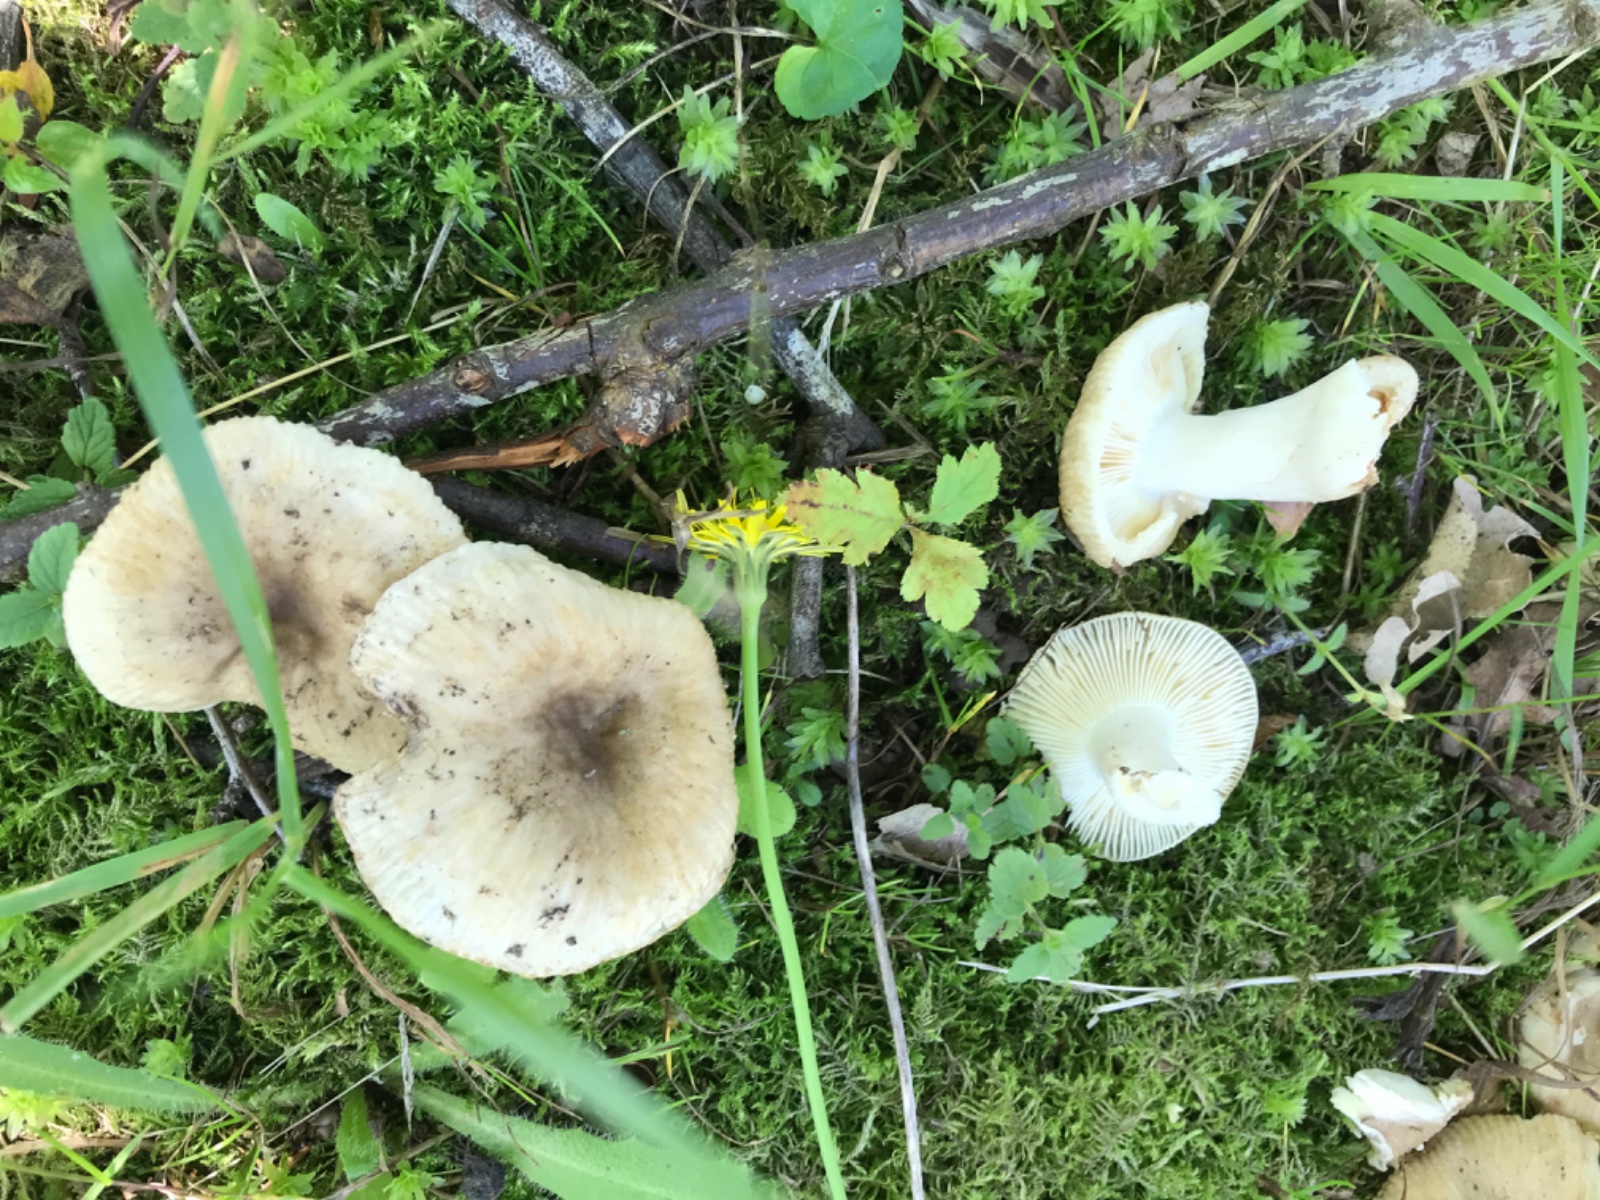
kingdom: Fungi
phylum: Basidiomycota
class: Agaricomycetes
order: Russulales
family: Russulaceae
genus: Russula
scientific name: Russula recondita
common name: mild kam-skørhat
